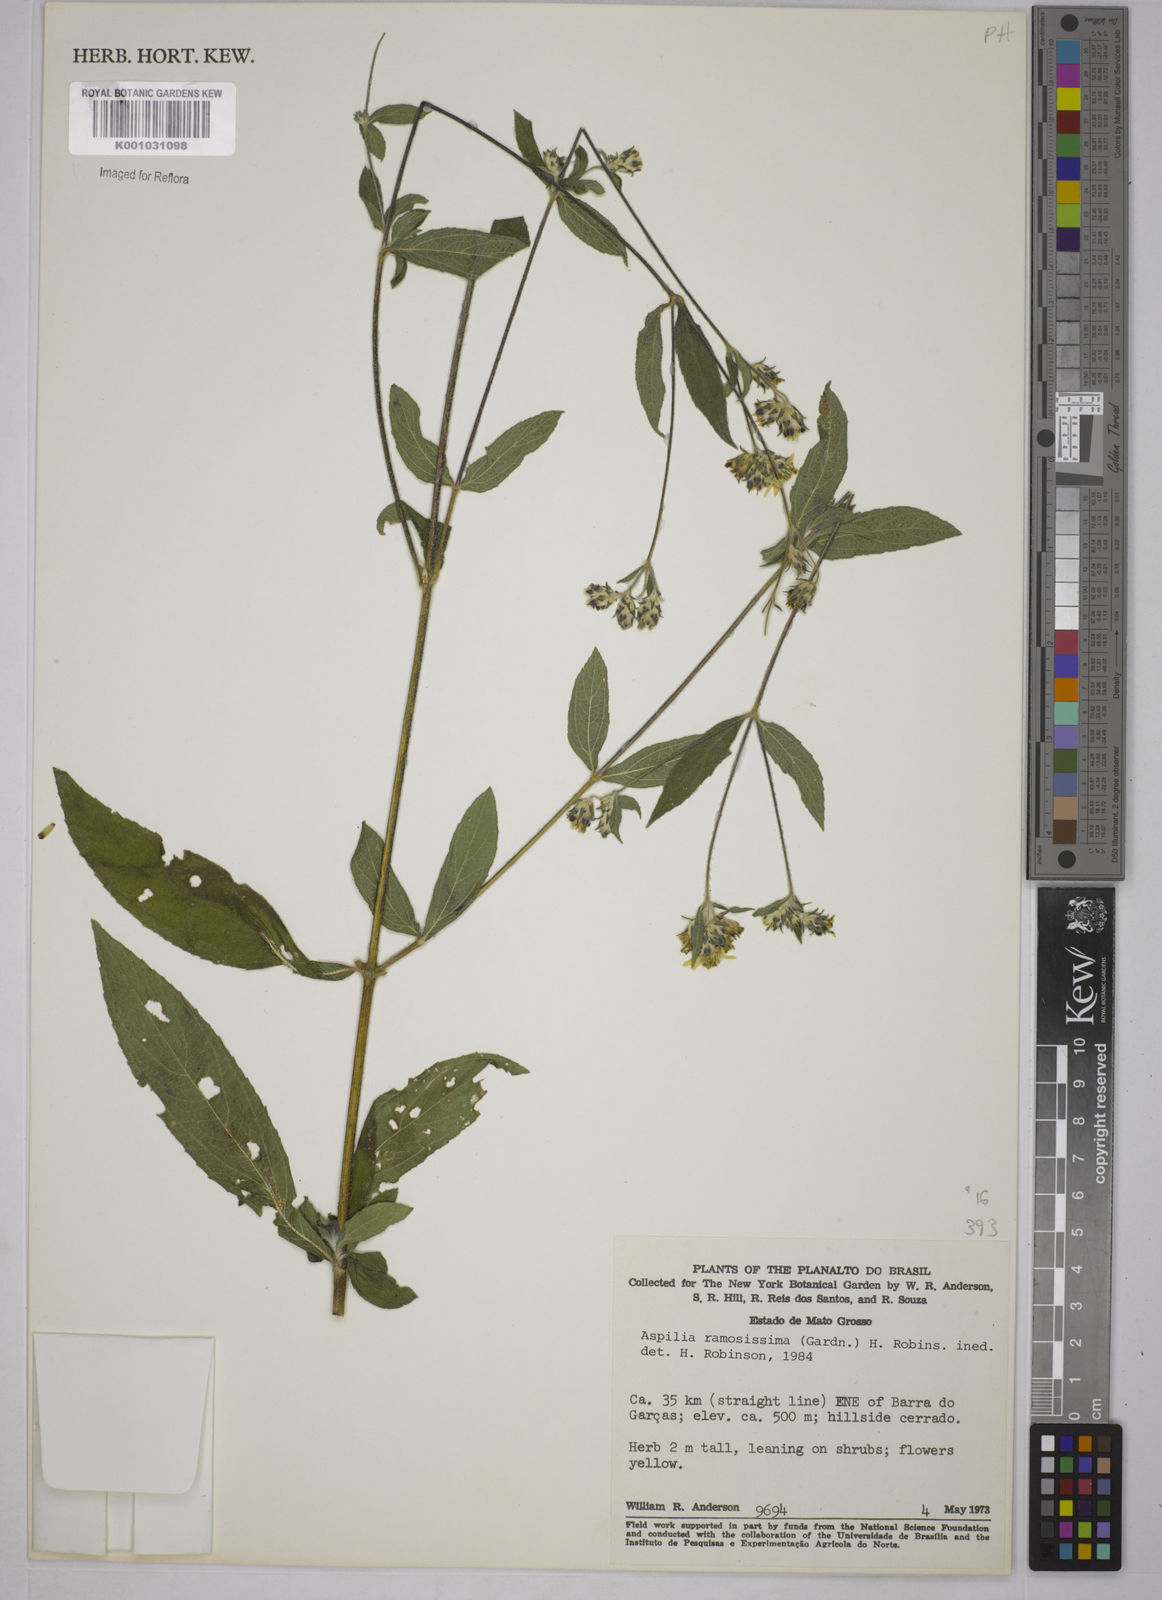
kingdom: Plantae
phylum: Tracheophyta
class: Magnoliopsida
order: Asterales
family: Asteraceae
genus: Aspilia
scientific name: Aspilia
